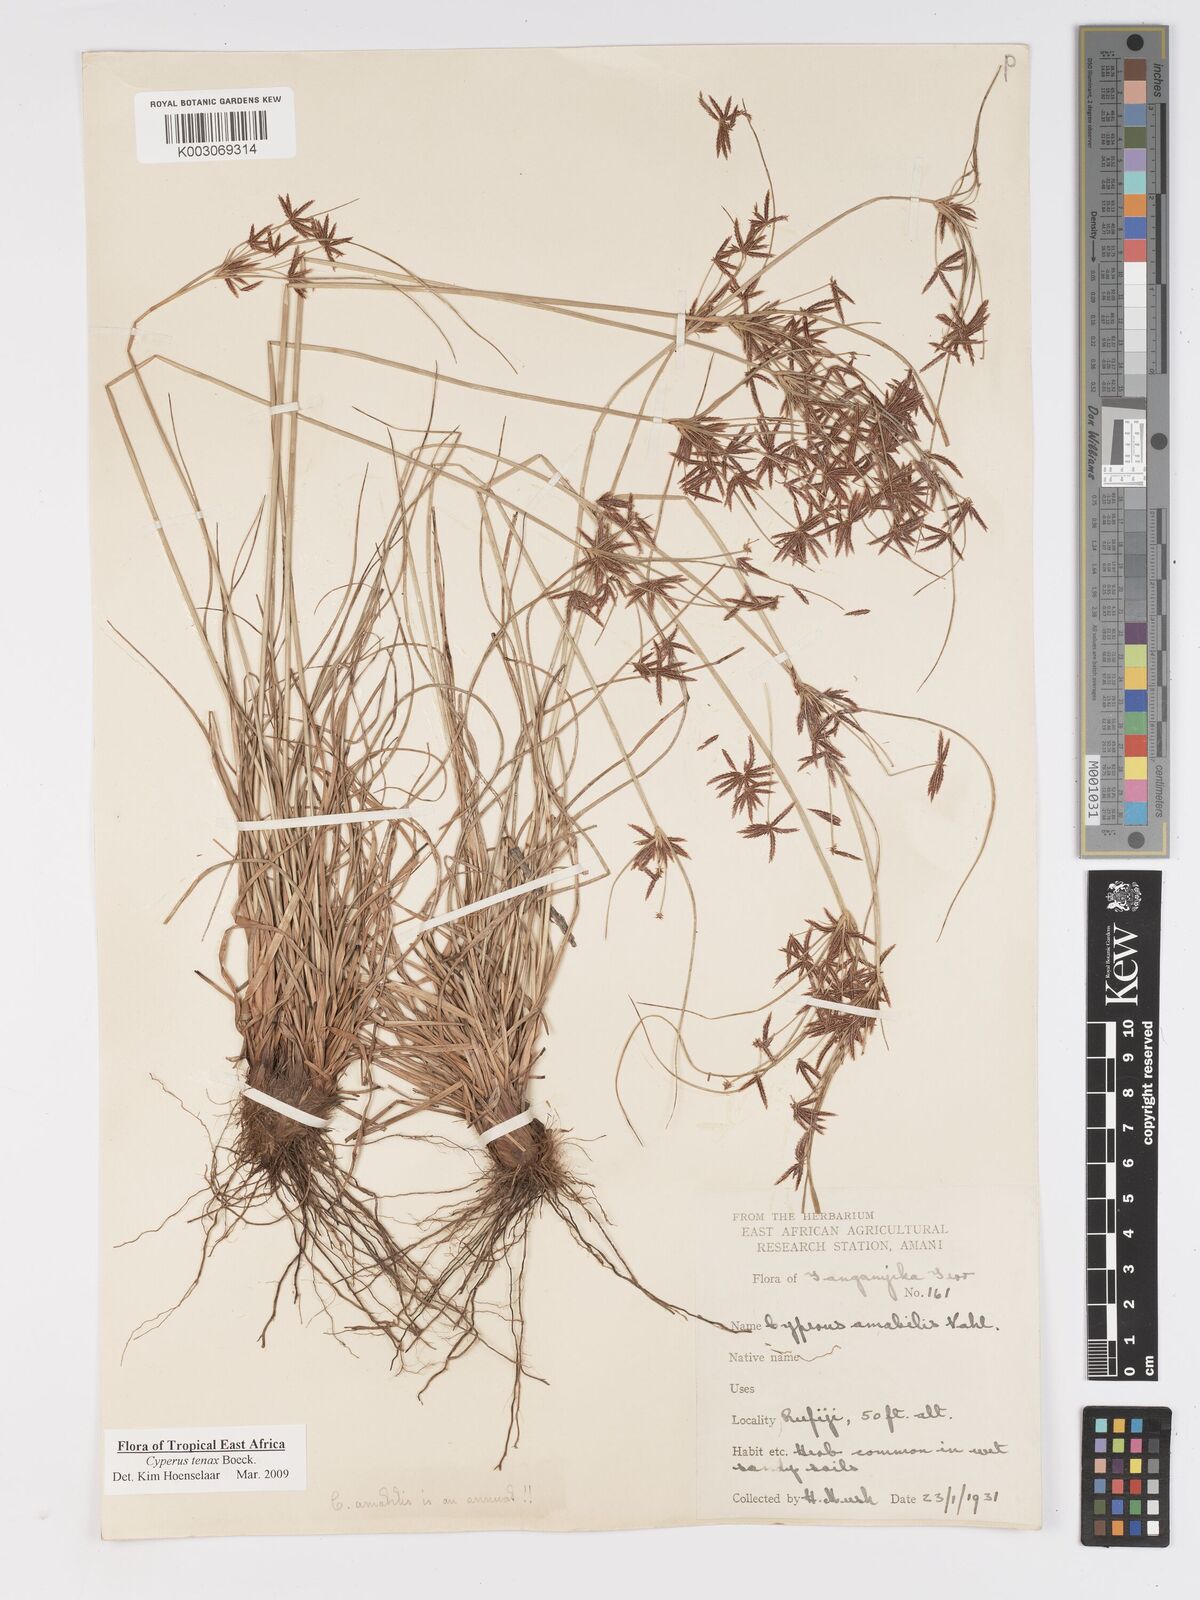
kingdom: Plantae
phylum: Tracheophyta
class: Liliopsida
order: Poales
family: Cyperaceae
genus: Cyperus
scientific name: Cyperus tenax
